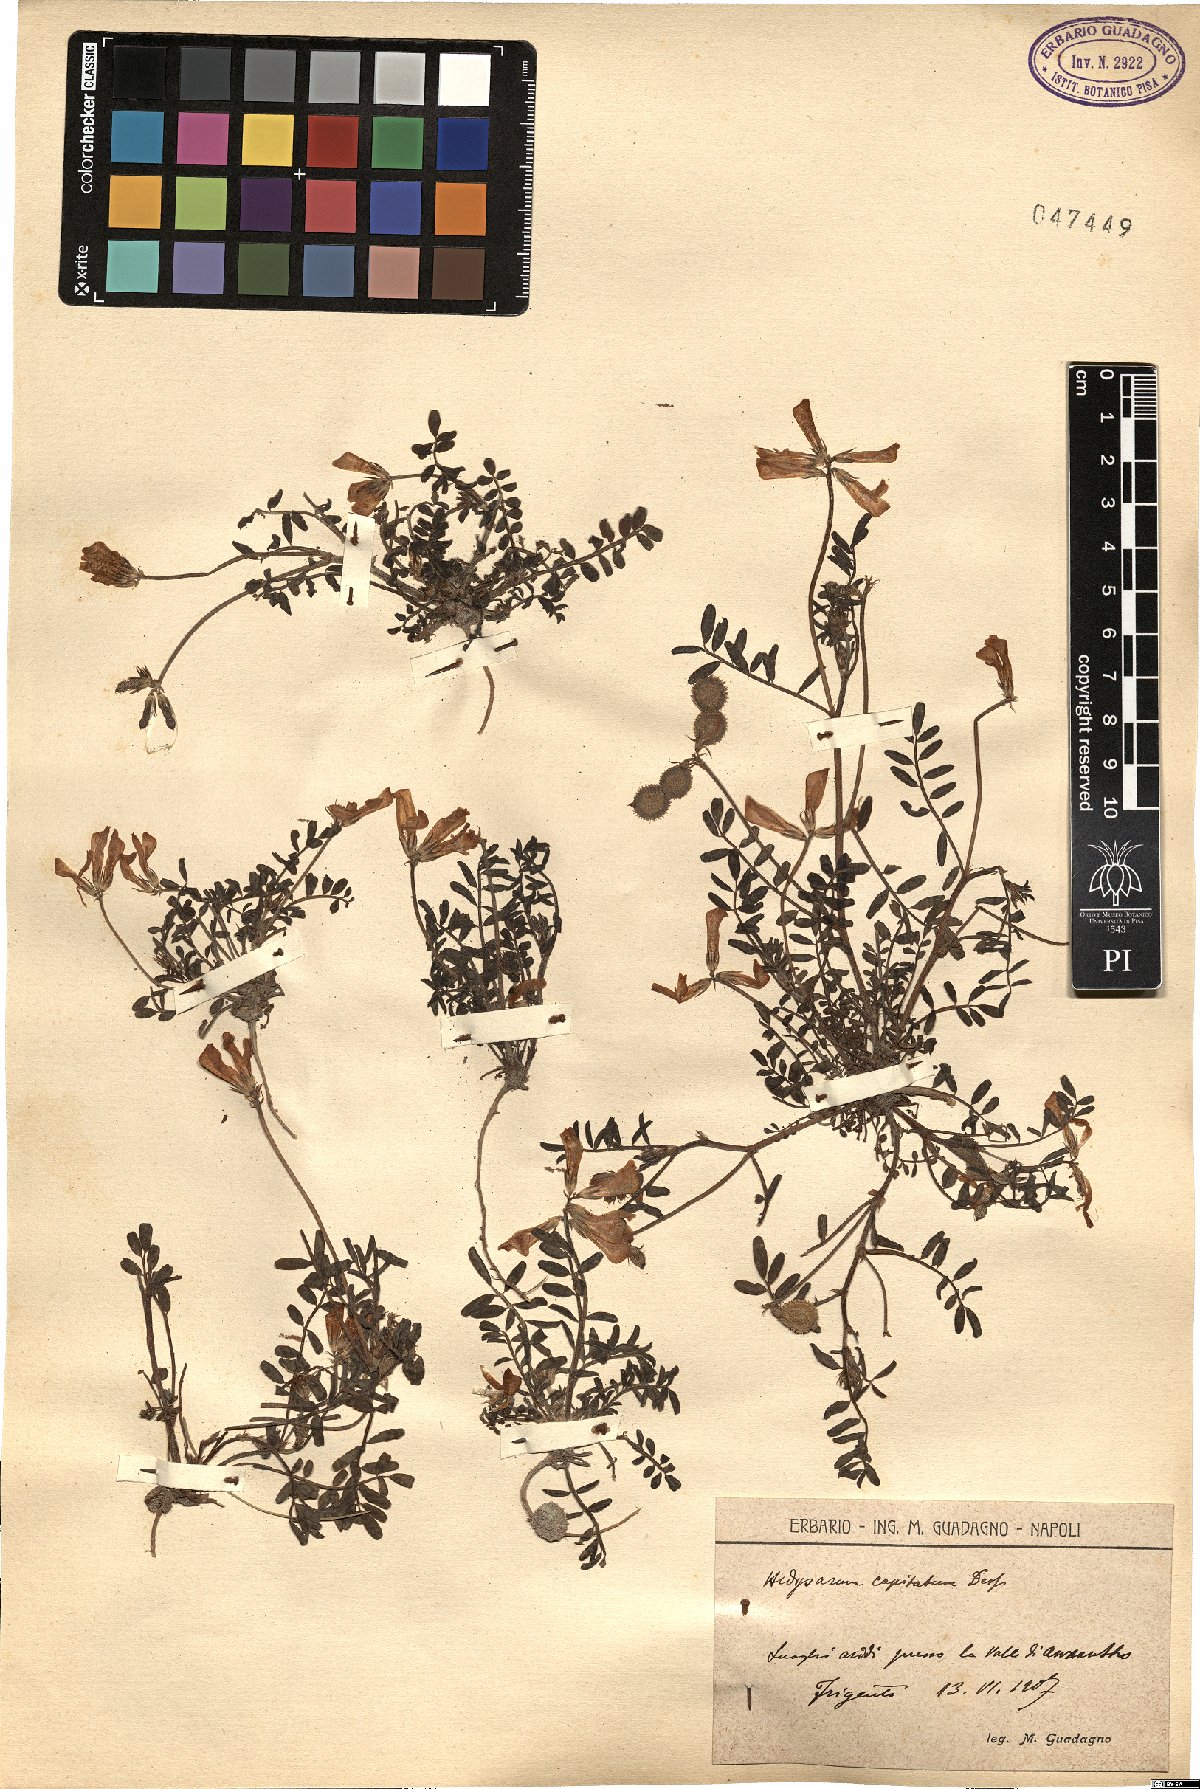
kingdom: Plantae
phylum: Tracheophyta
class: Magnoliopsida
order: Fabales
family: Fabaceae
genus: Sulla
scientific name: Sulla glomerata
